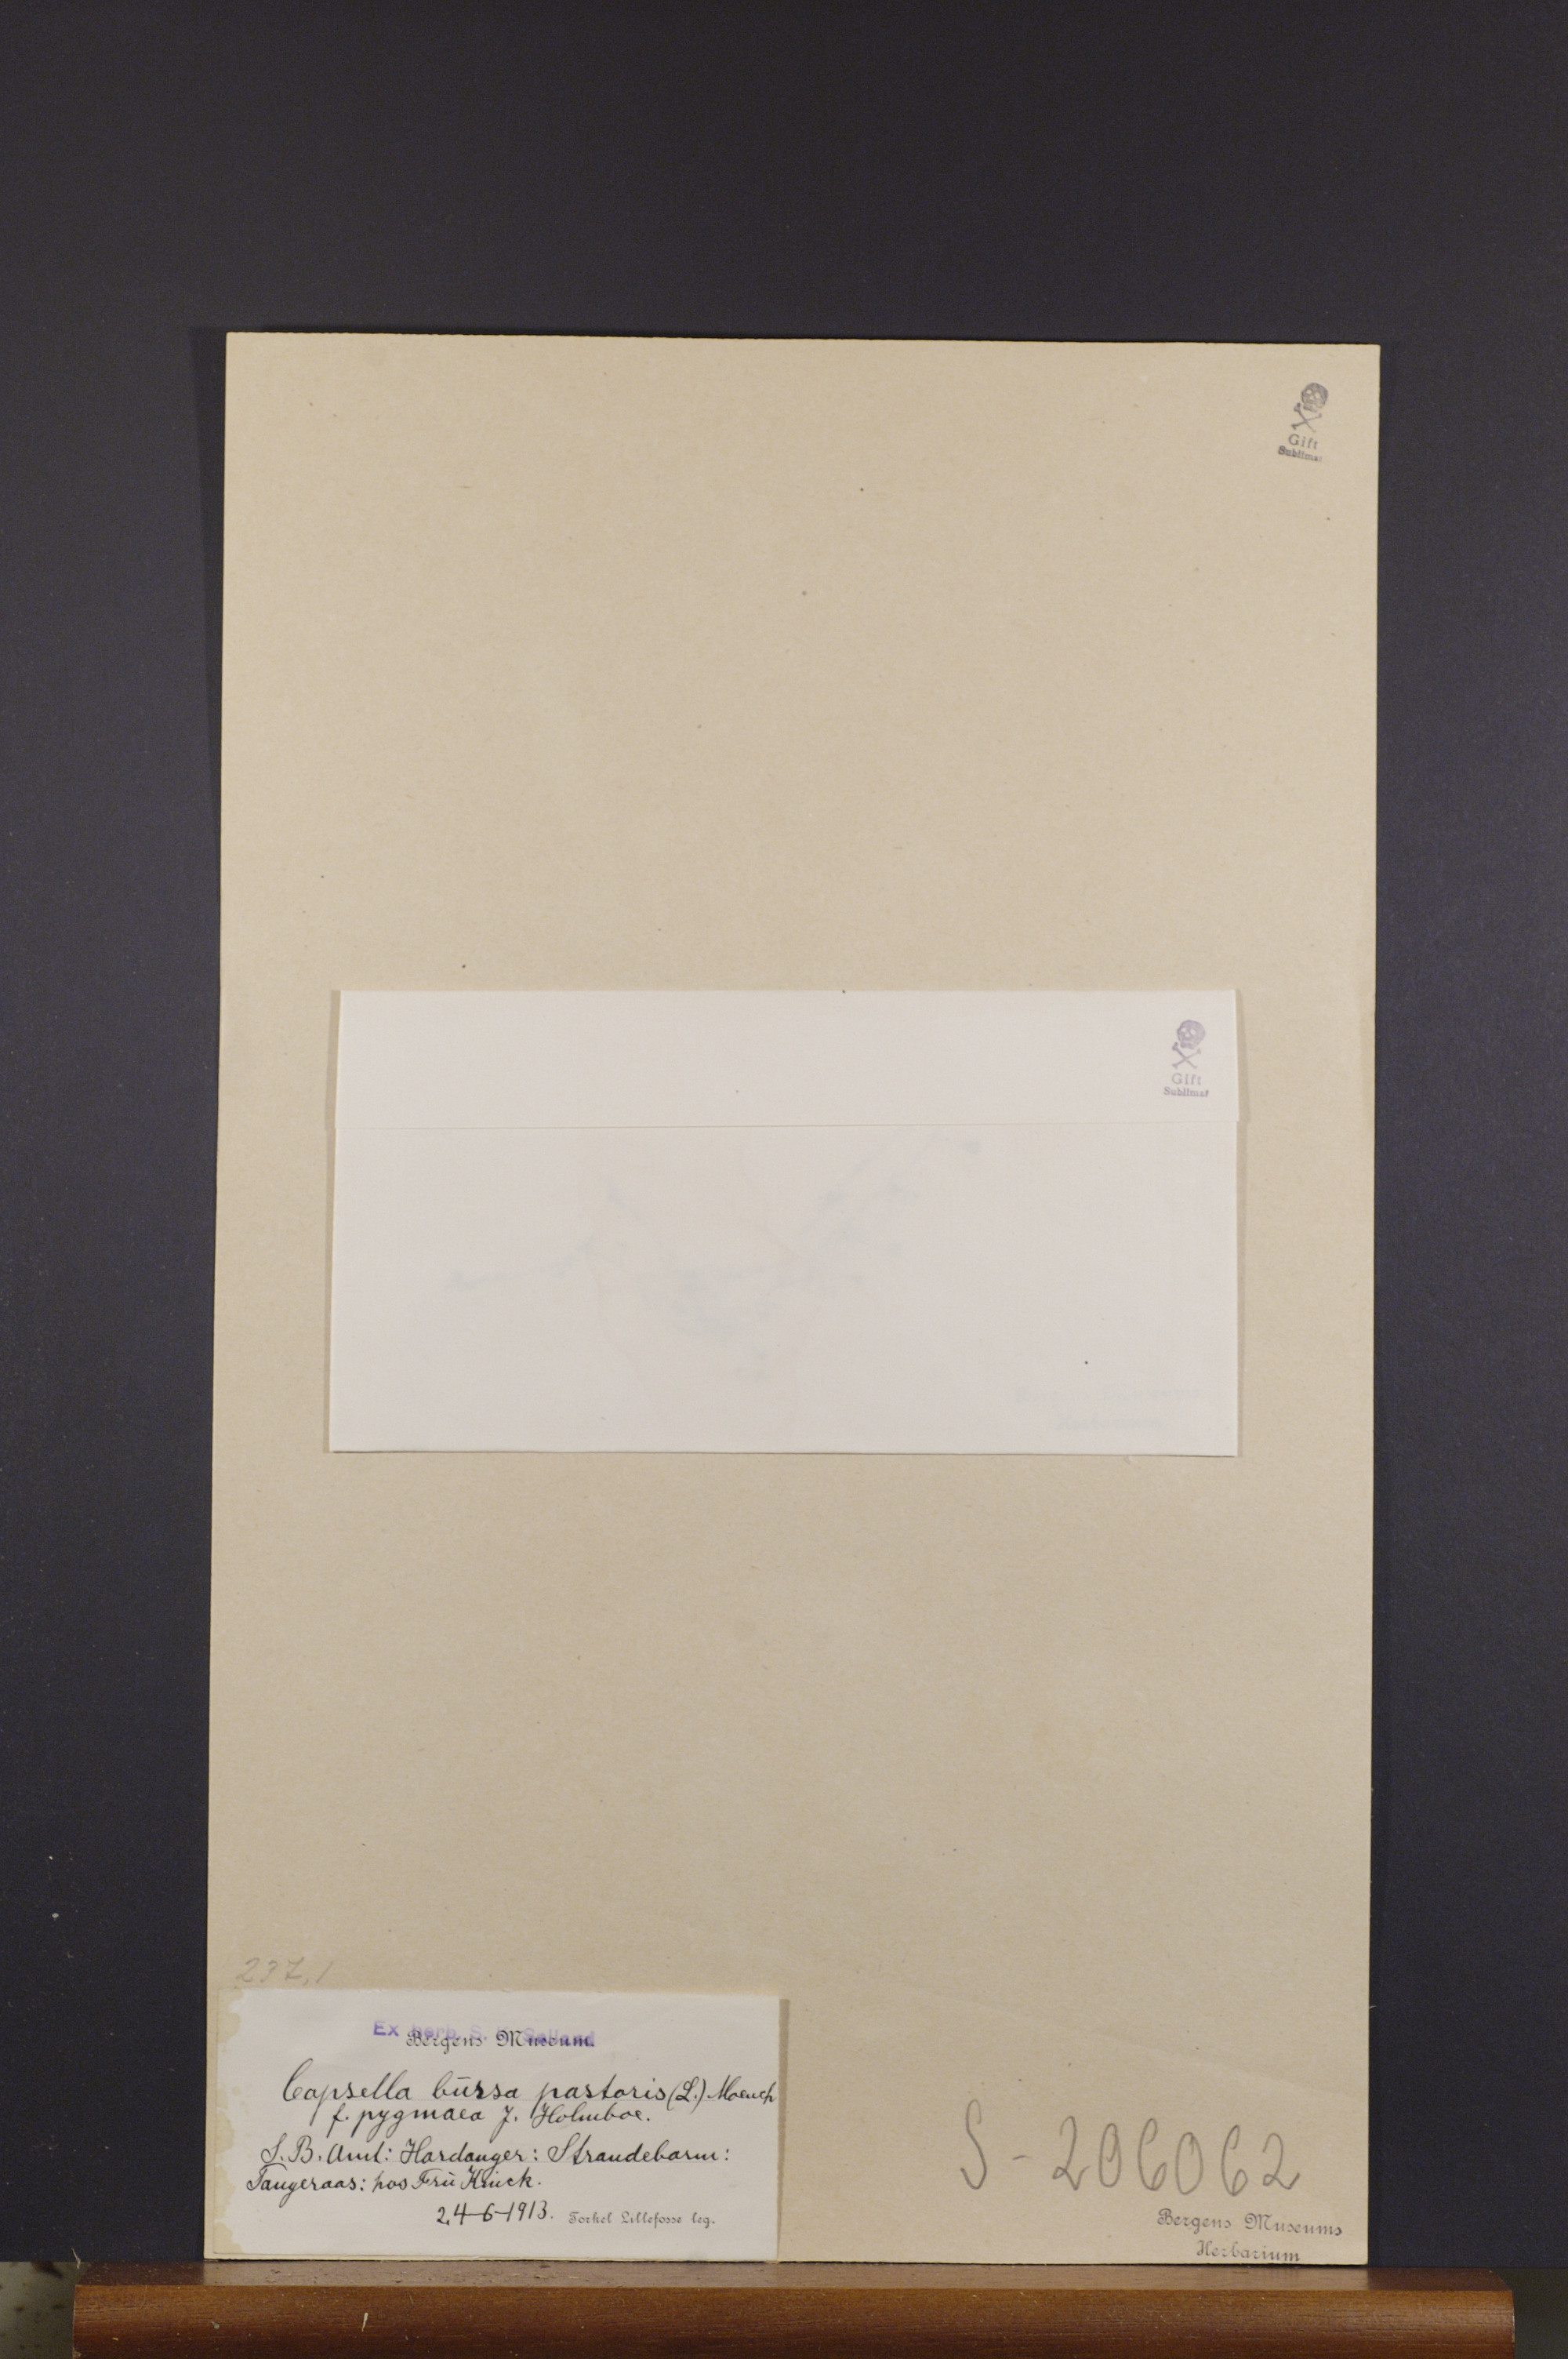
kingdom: Plantae
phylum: Tracheophyta
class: Magnoliopsida
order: Brassicales
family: Brassicaceae
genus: Capsella
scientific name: Capsella bursa-pastoris
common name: Shepherd's purse
